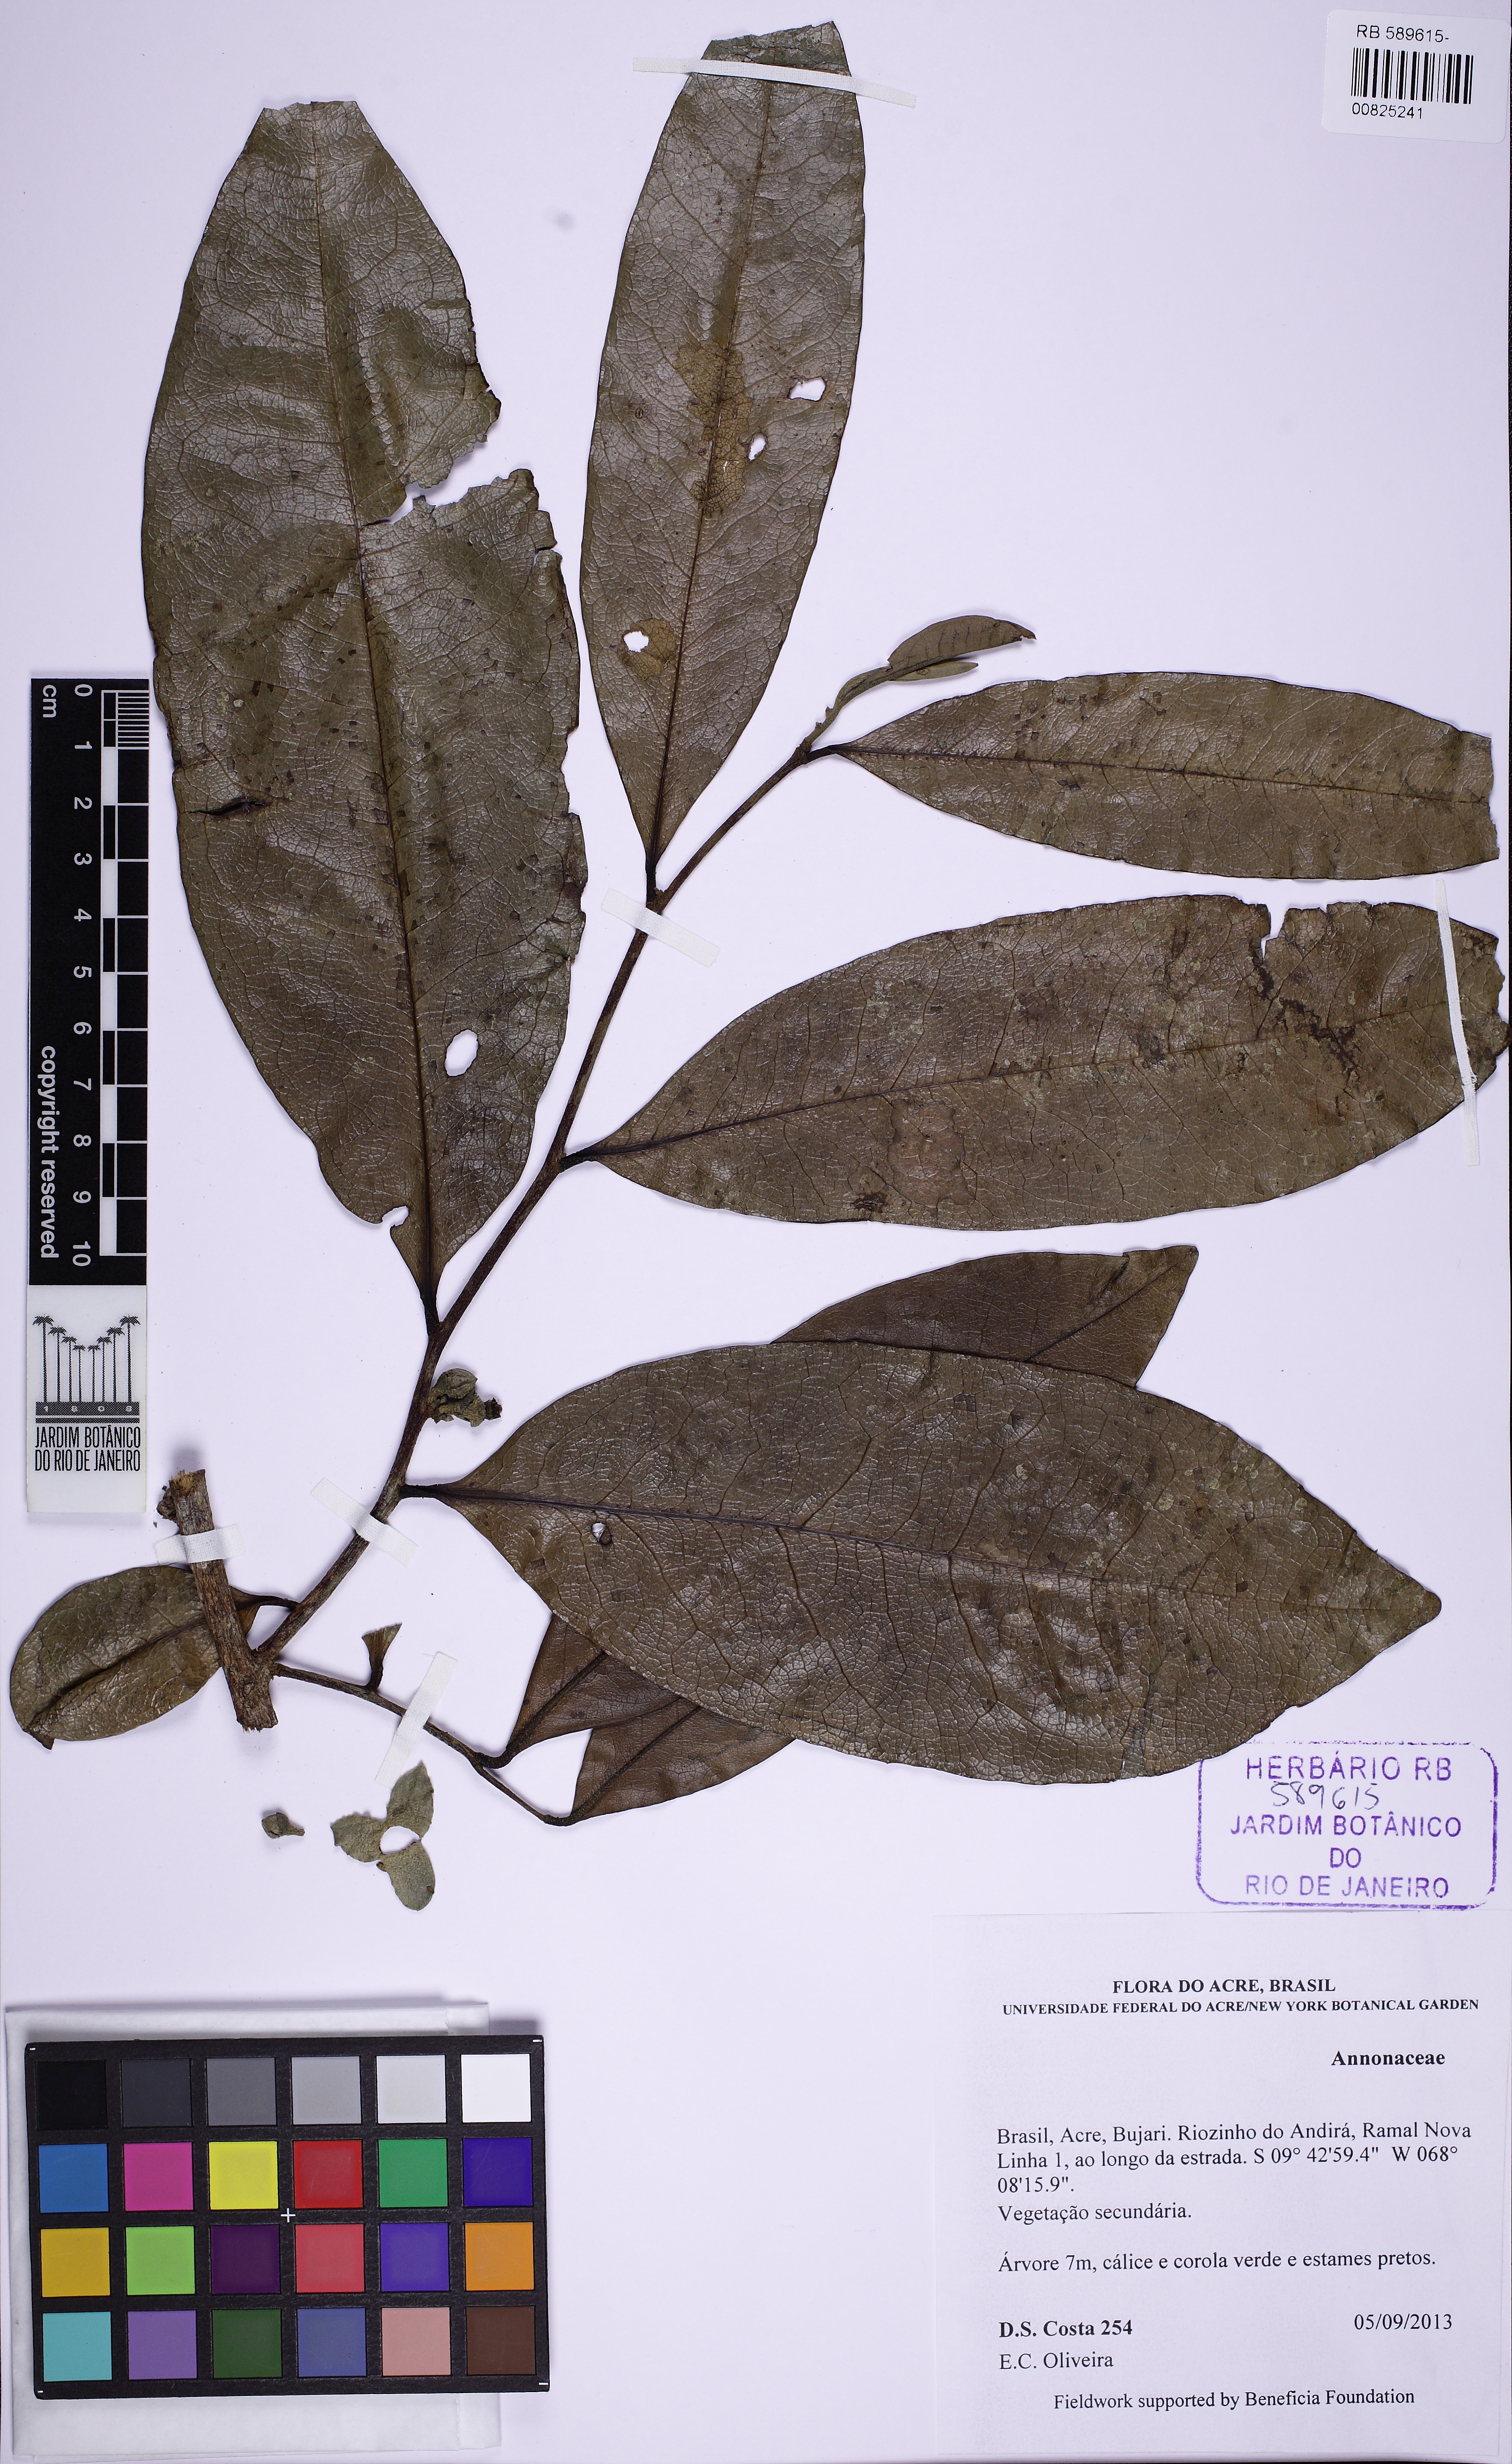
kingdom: Plantae
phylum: Tracheophyta
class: Magnoliopsida
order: Magnoliales
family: Annonaceae
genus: Duguetia
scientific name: Duguetia
